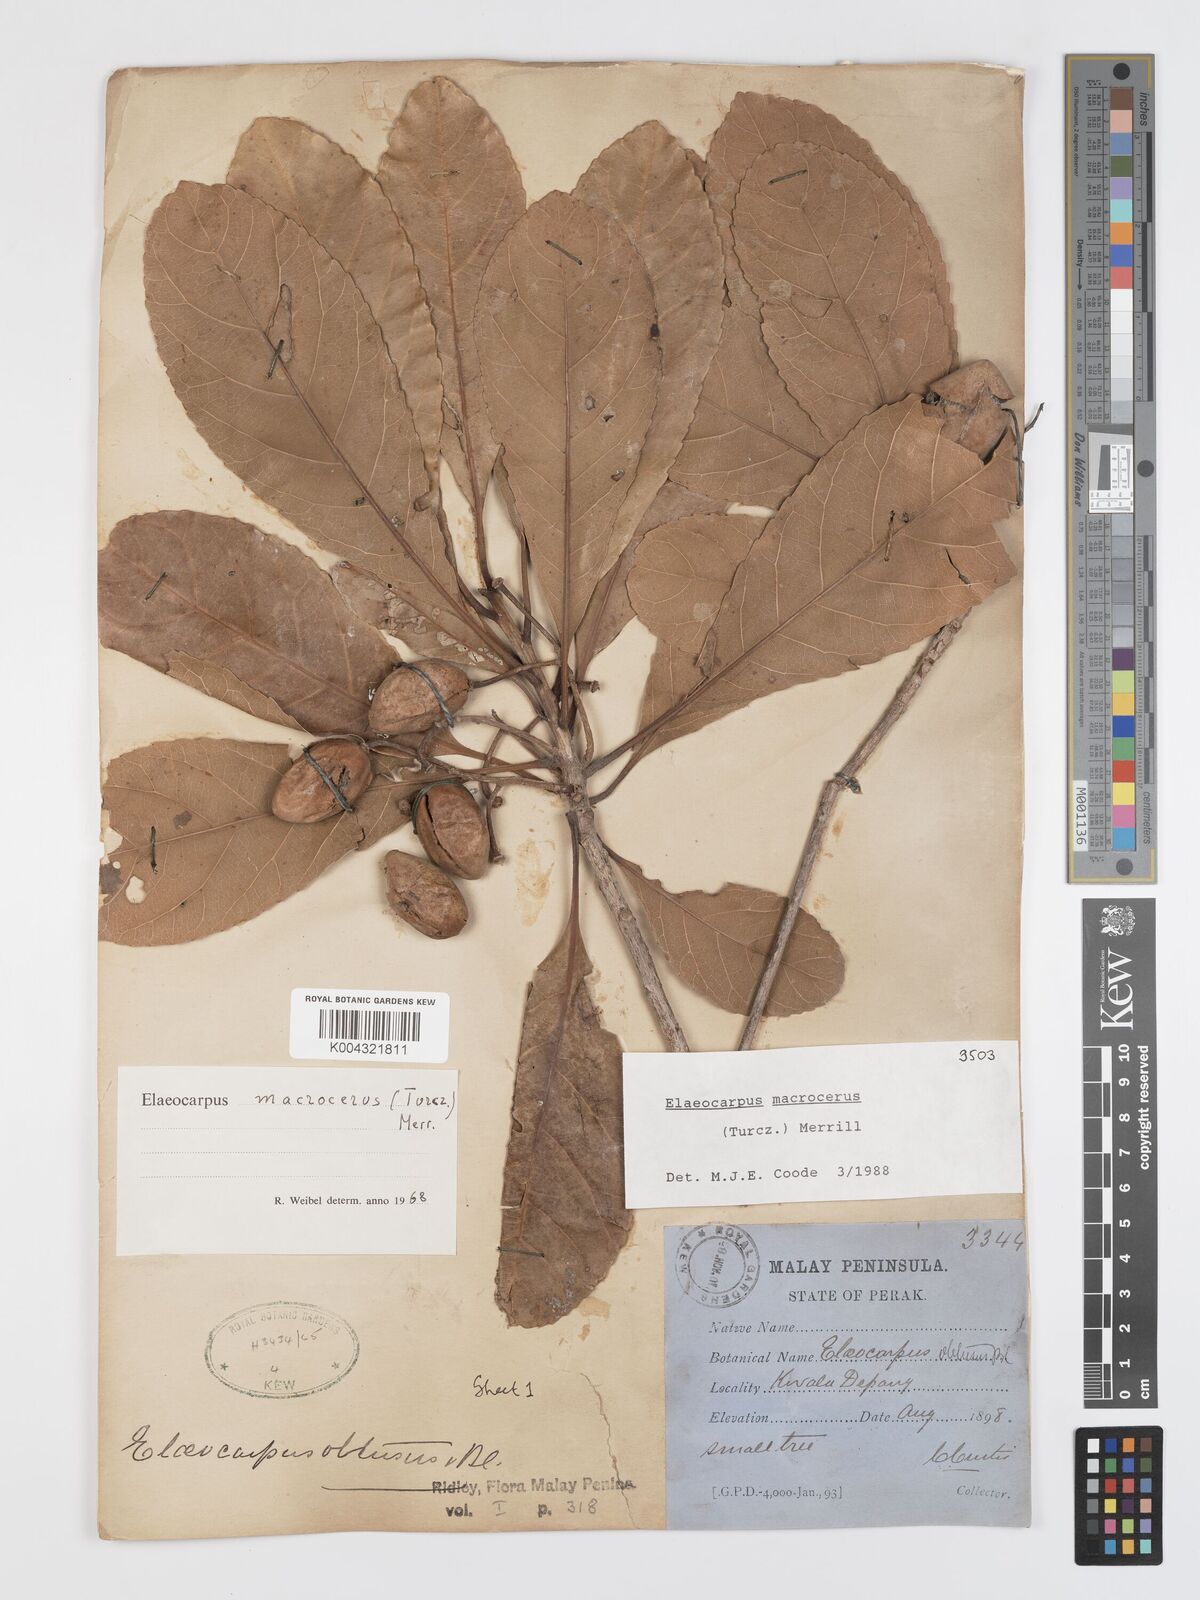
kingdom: Plantae
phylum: Tracheophyta
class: Magnoliopsida
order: Oxalidales
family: Elaeocarpaceae
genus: Elaeocarpus
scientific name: Elaeocarpus
